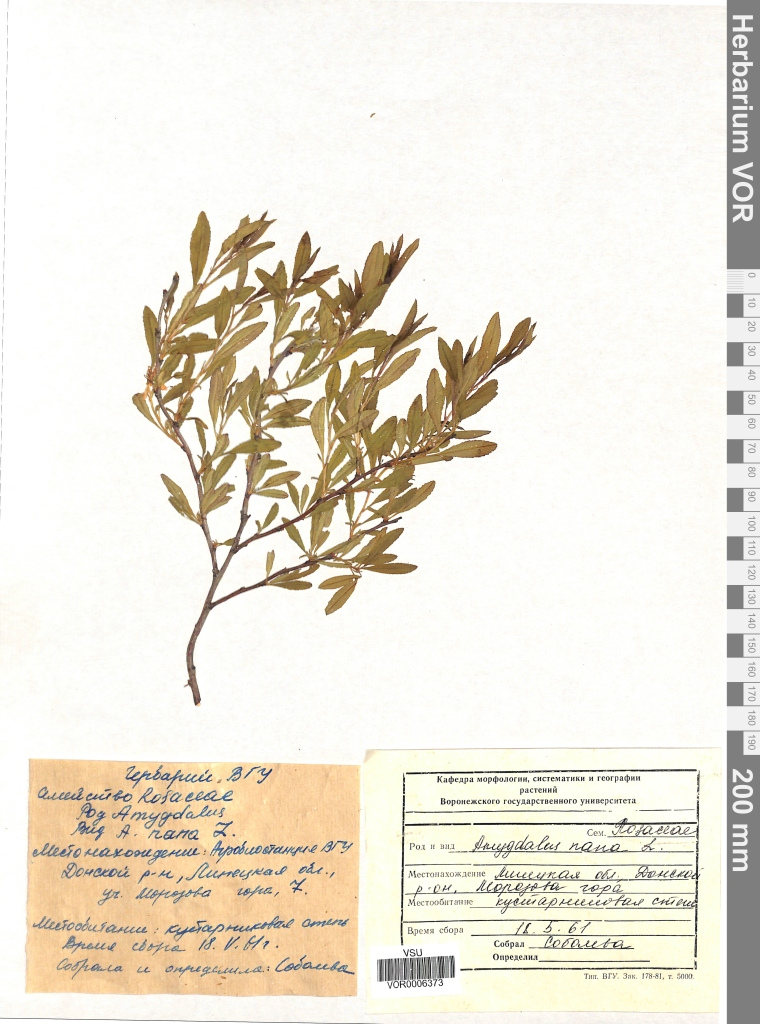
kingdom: Plantae
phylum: Tracheophyta
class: Magnoliopsida
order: Rosales
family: Rosaceae
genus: Prunus
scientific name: Prunus tenella
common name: Dwarf russian almond
